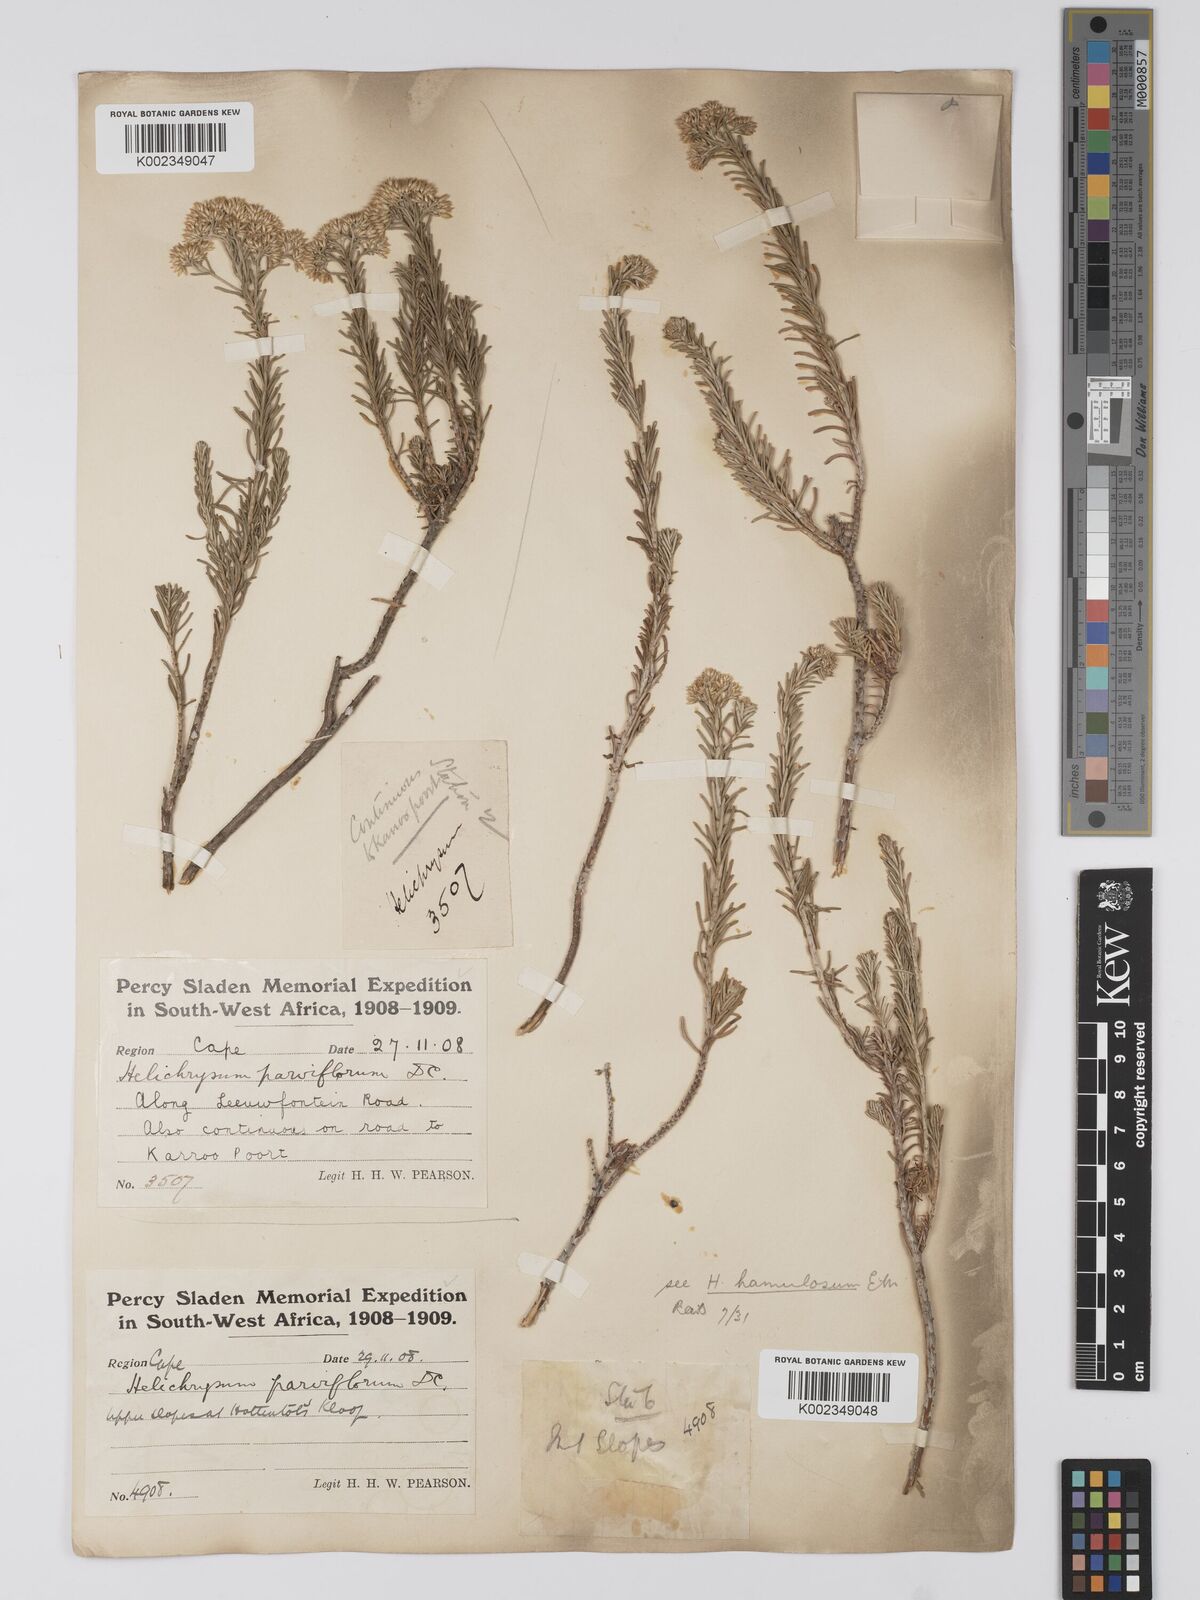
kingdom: Plantae
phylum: Tracheophyta
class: Magnoliopsida
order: Asterales
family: Asteraceae
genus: Helichrysum
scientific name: Helichrysum hamulosum
